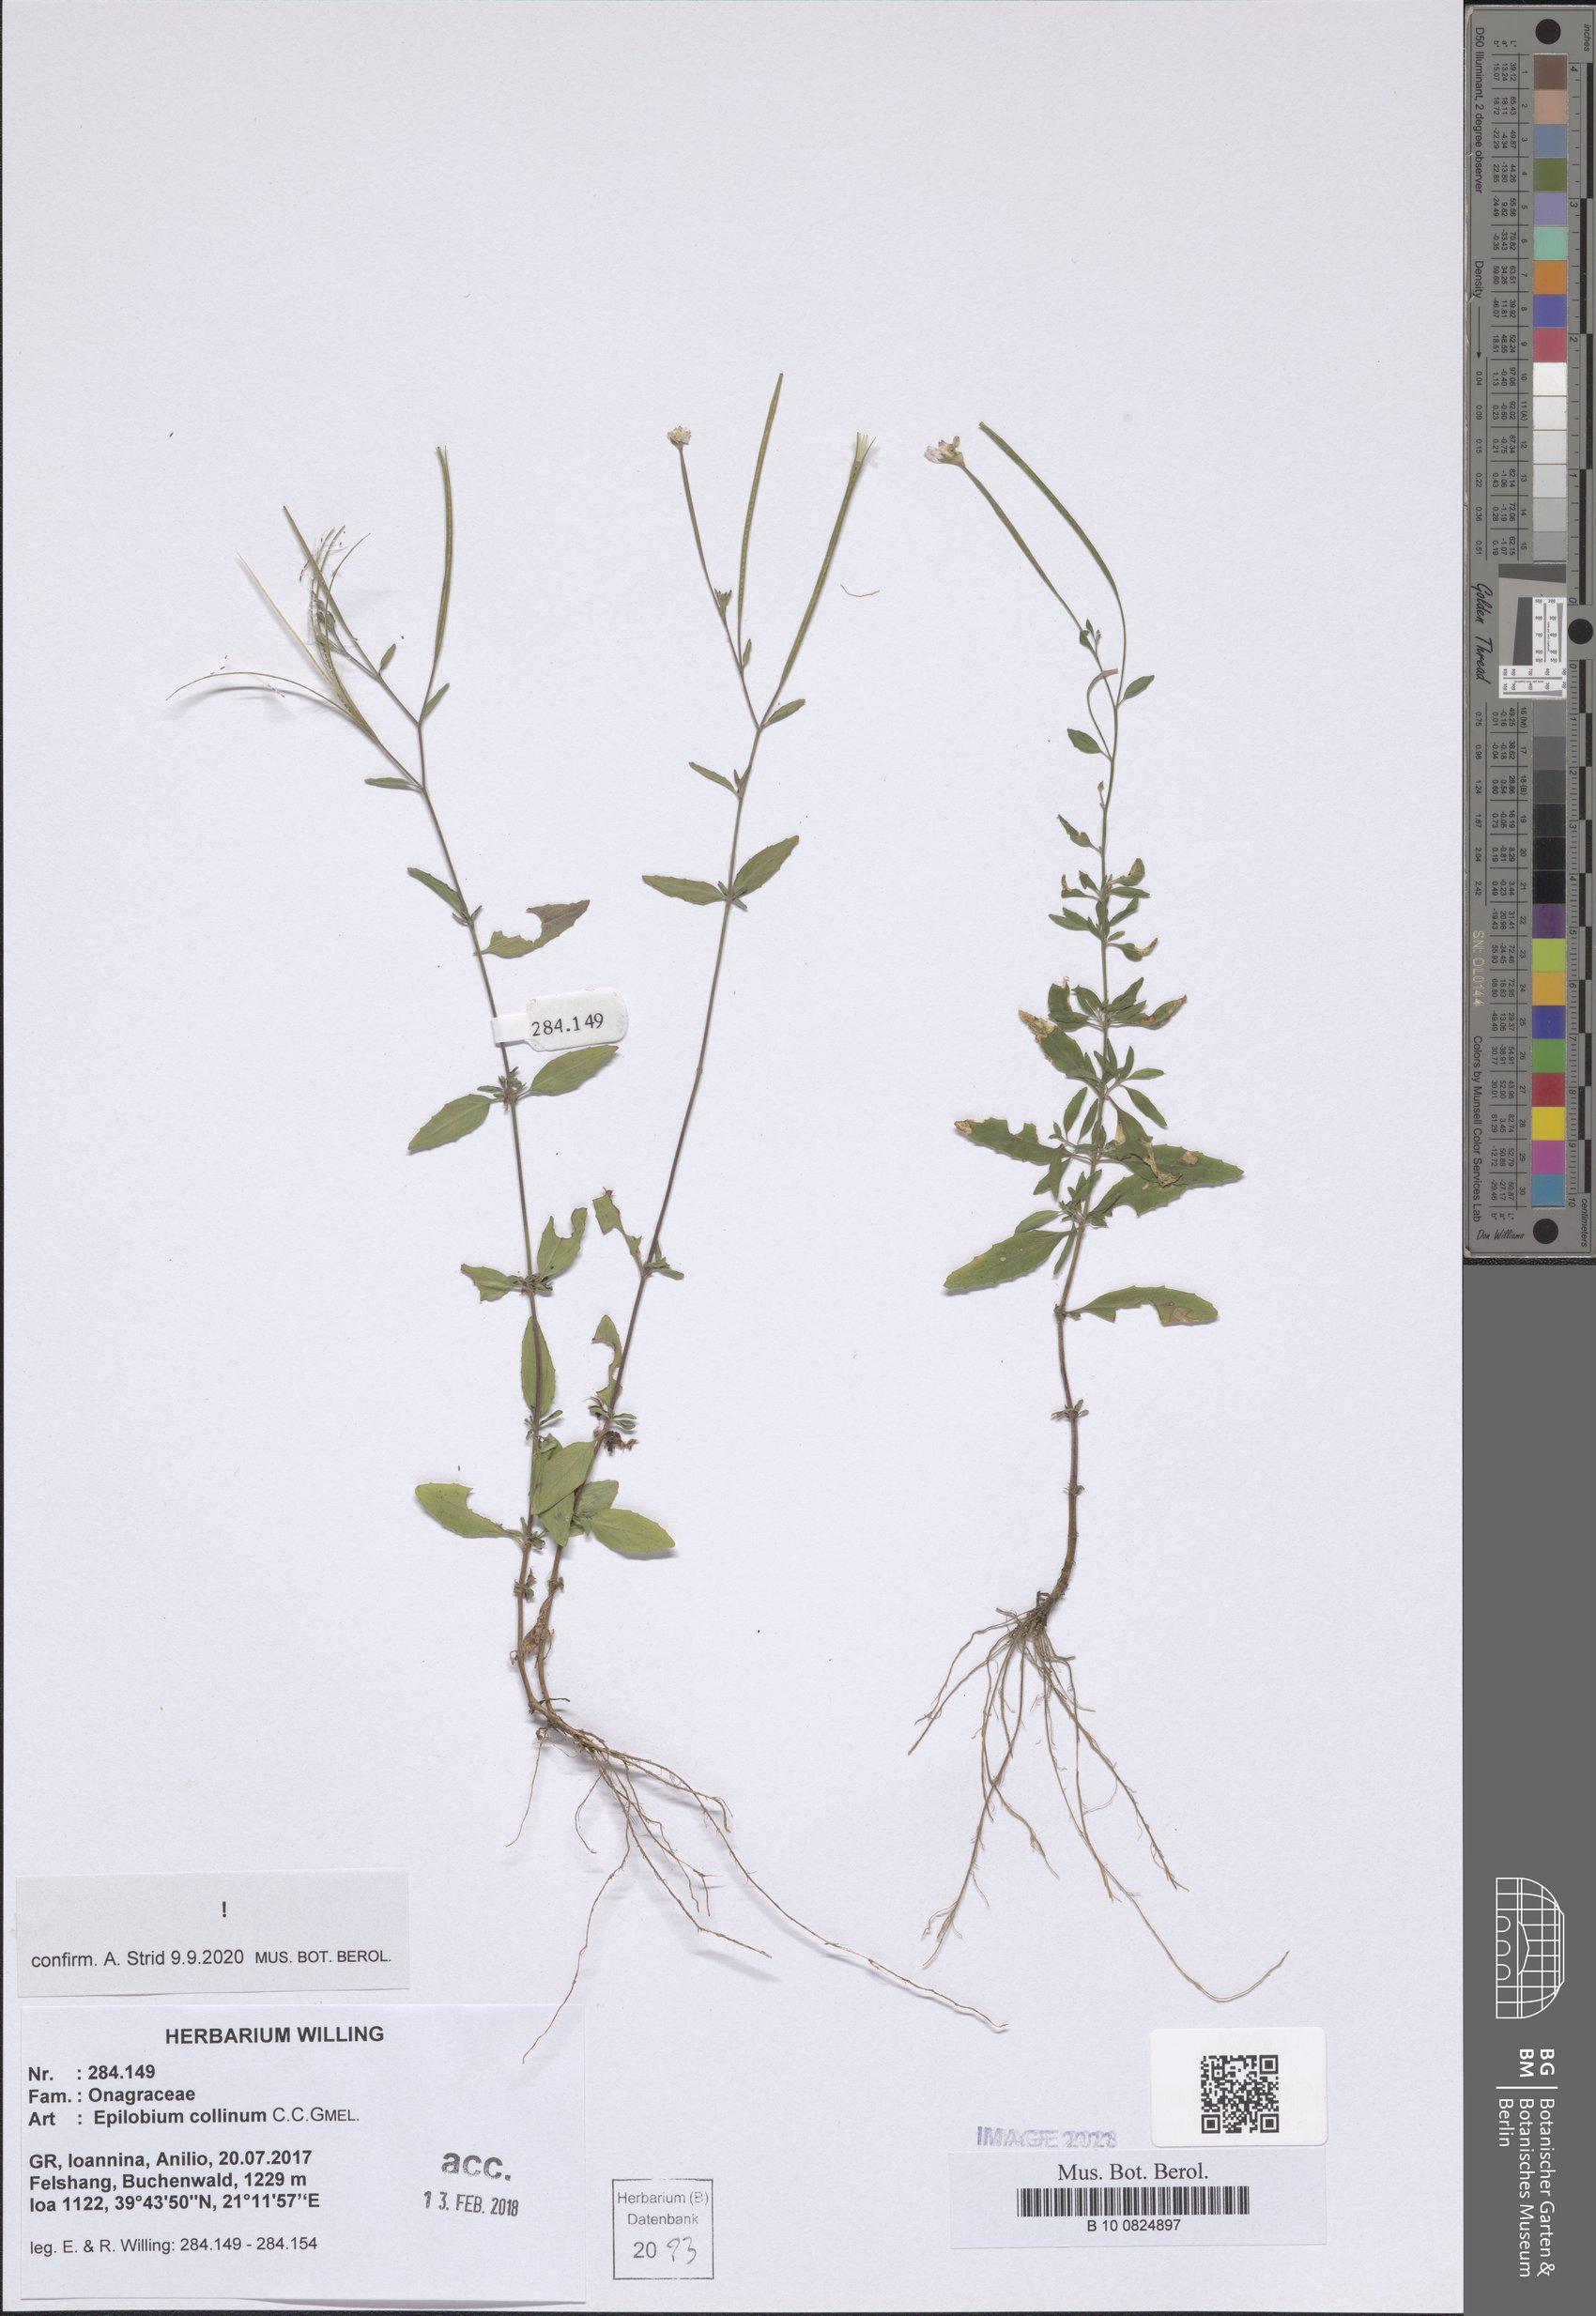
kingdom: Plantae
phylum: Tracheophyta
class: Magnoliopsida
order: Myrtales
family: Onagraceae
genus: Epilobium
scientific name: Epilobium collinum
